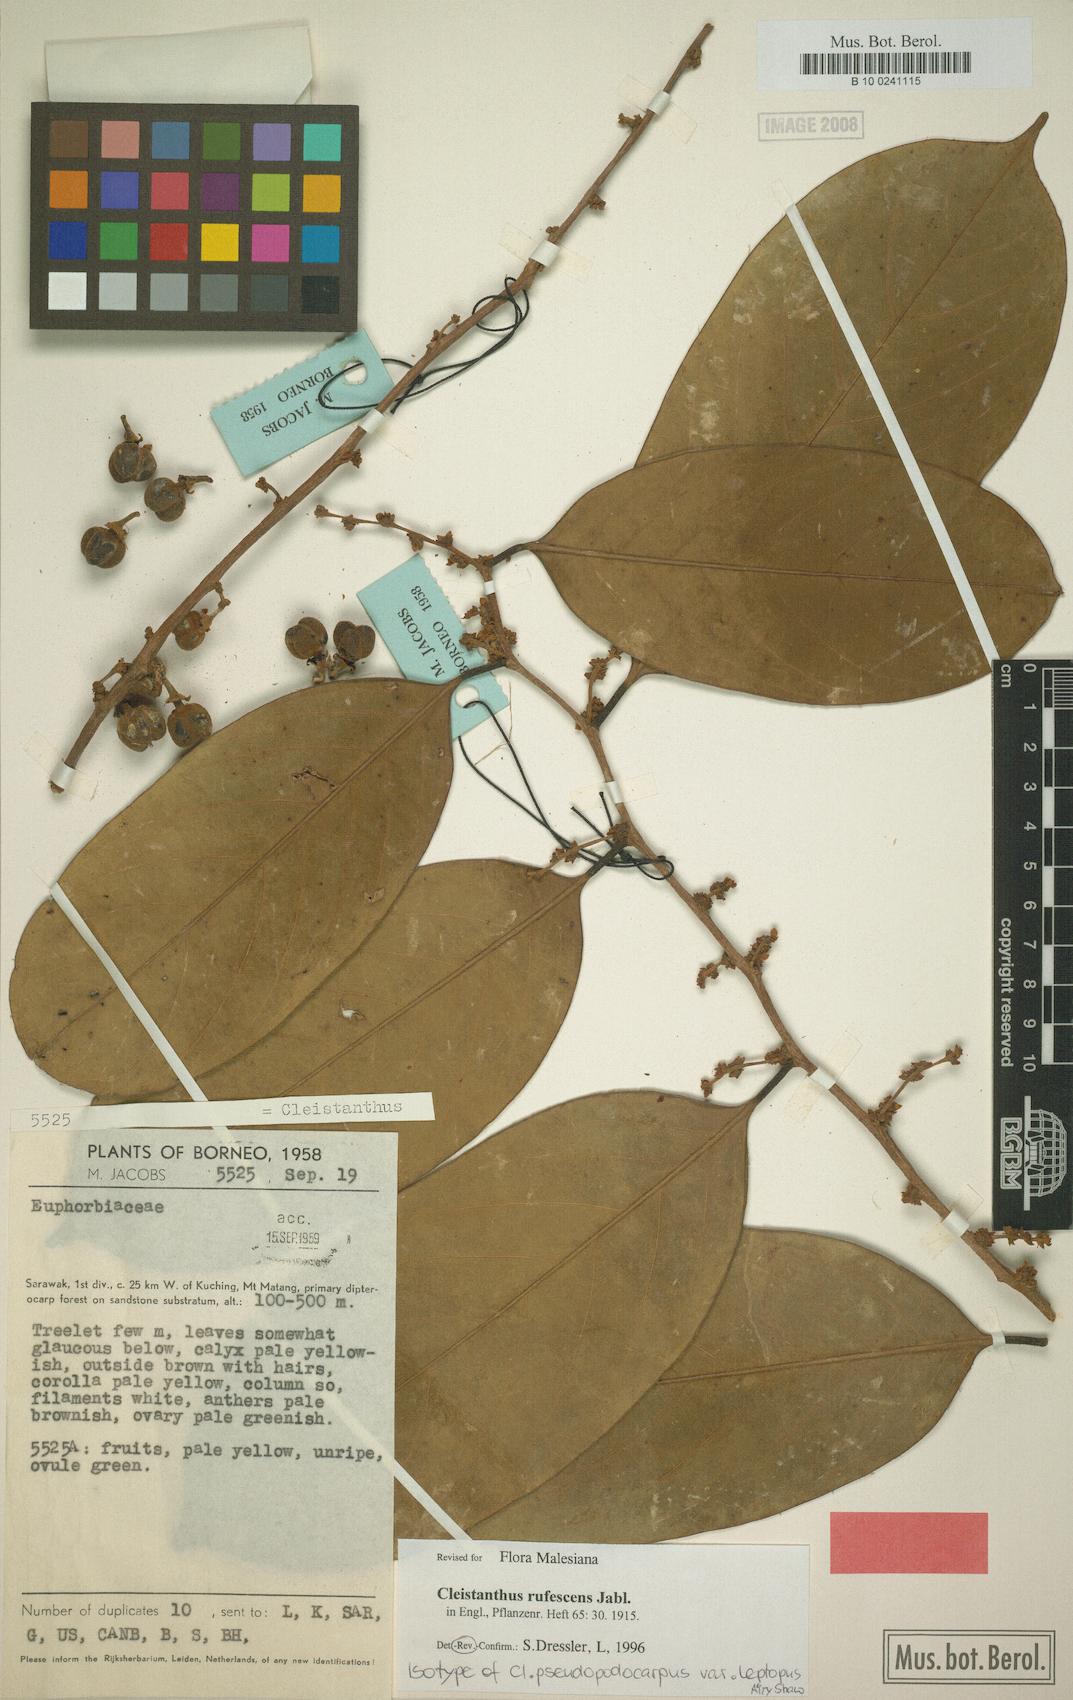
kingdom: Plantae
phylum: Tracheophyta
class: Magnoliopsida
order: Malpighiales
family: Phyllanthaceae
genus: Cleistanthus
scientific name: Cleistanthus rufescens
